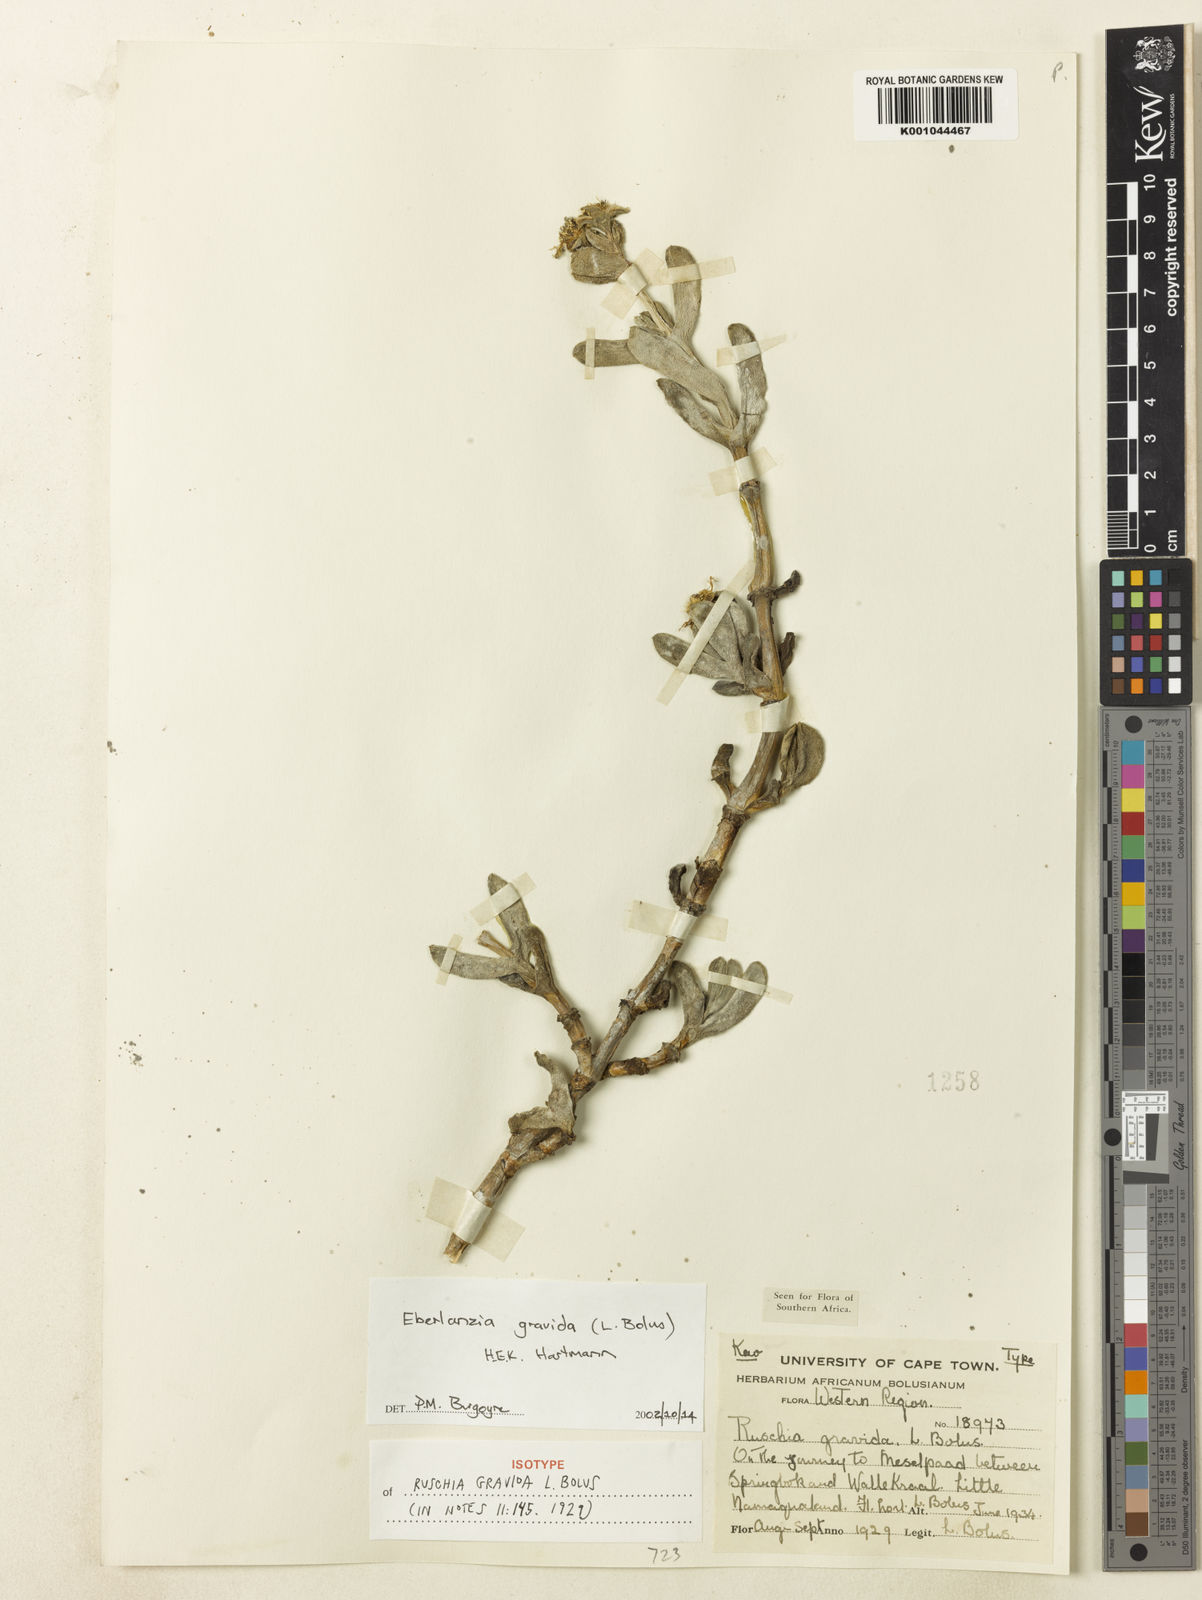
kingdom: Plantae
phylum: Tracheophyta
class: Magnoliopsida
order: Caryophyllales
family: Aizoaceae
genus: Eberlanzia
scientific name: Eberlanzia gravida
